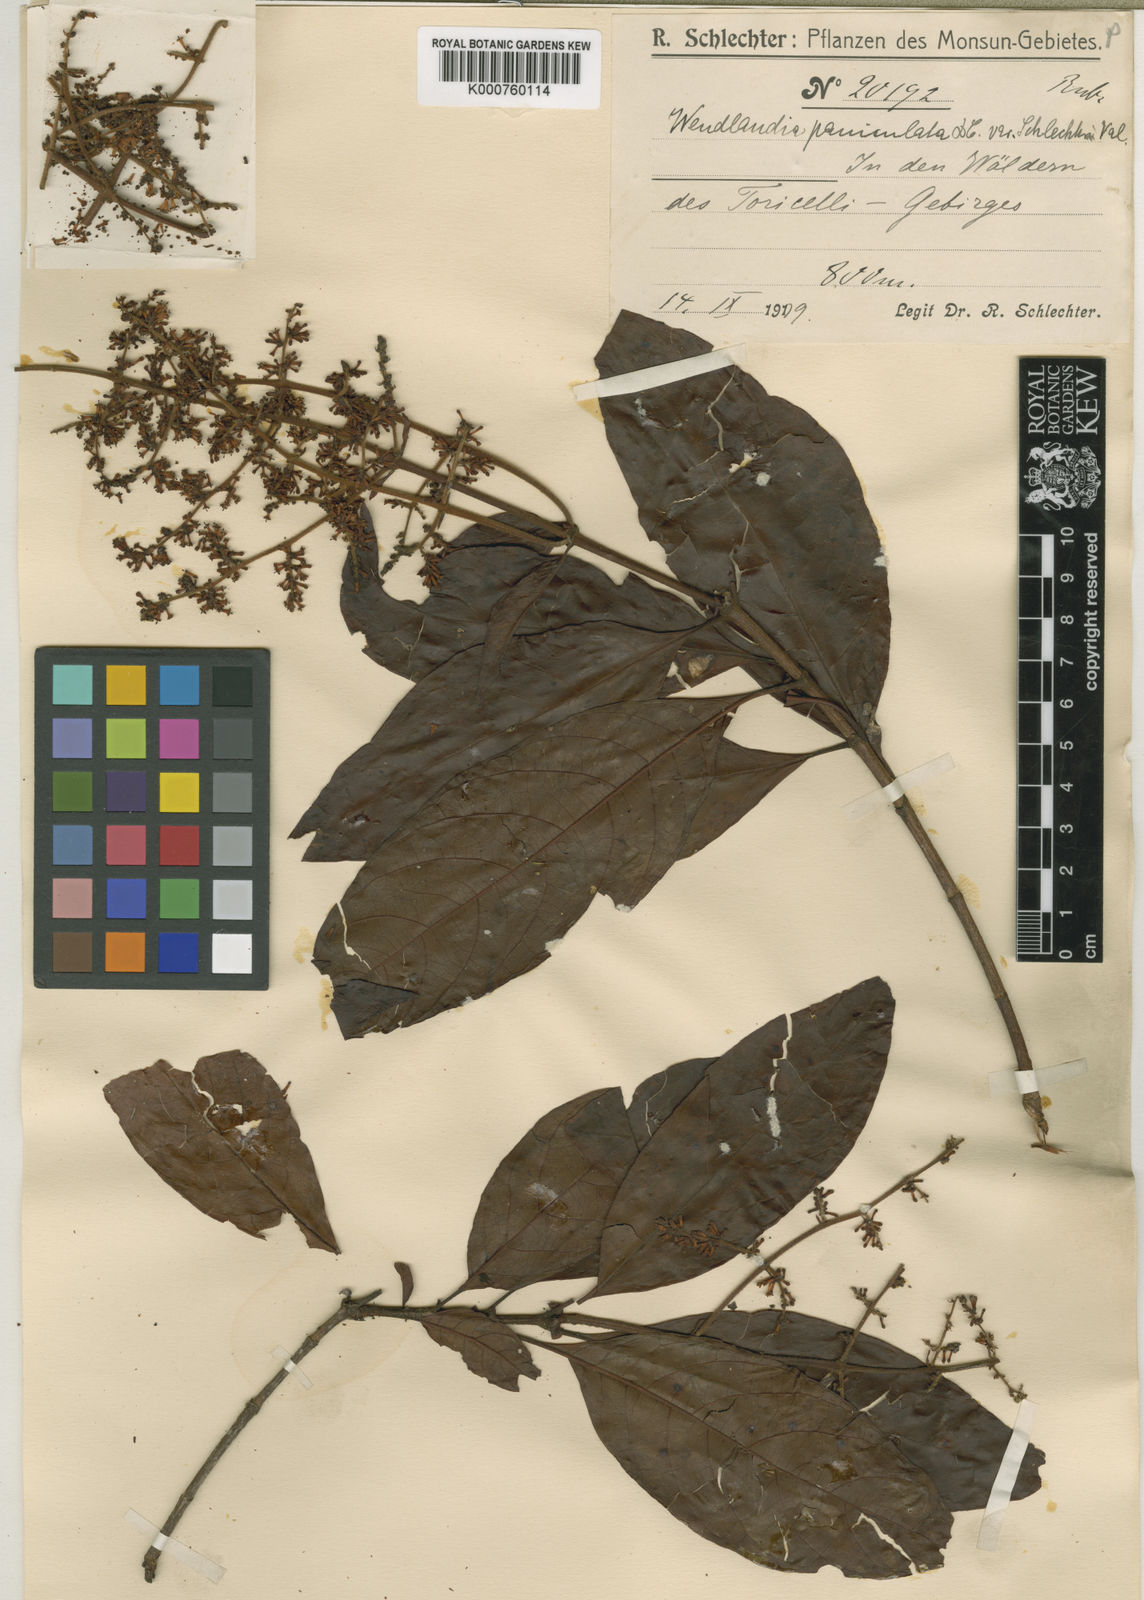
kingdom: Plantae
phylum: Tracheophyta
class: Magnoliopsida
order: Gentianales
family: Rubiaceae
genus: Wendlandia
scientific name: Wendlandia paniculata
